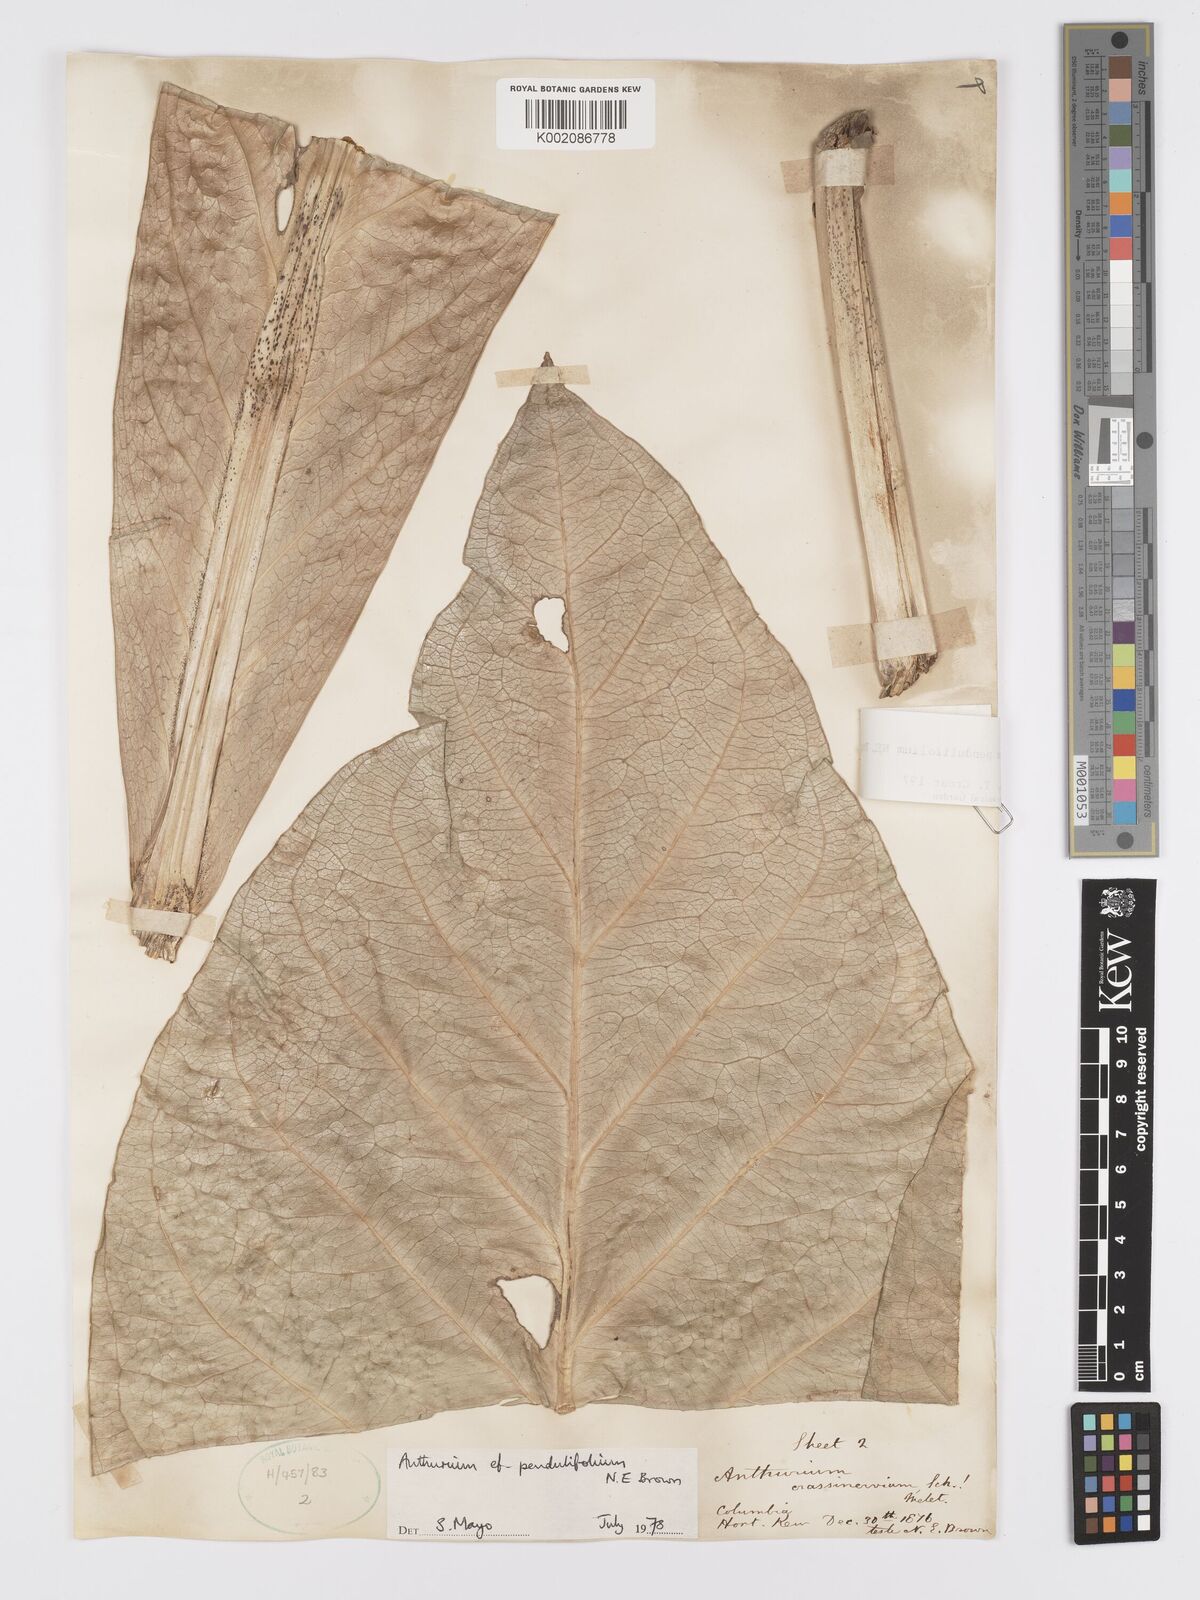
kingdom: Plantae
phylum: Tracheophyta
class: Liliopsida
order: Alismatales
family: Araceae
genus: Anthurium
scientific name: Anthurium pendulifolium
